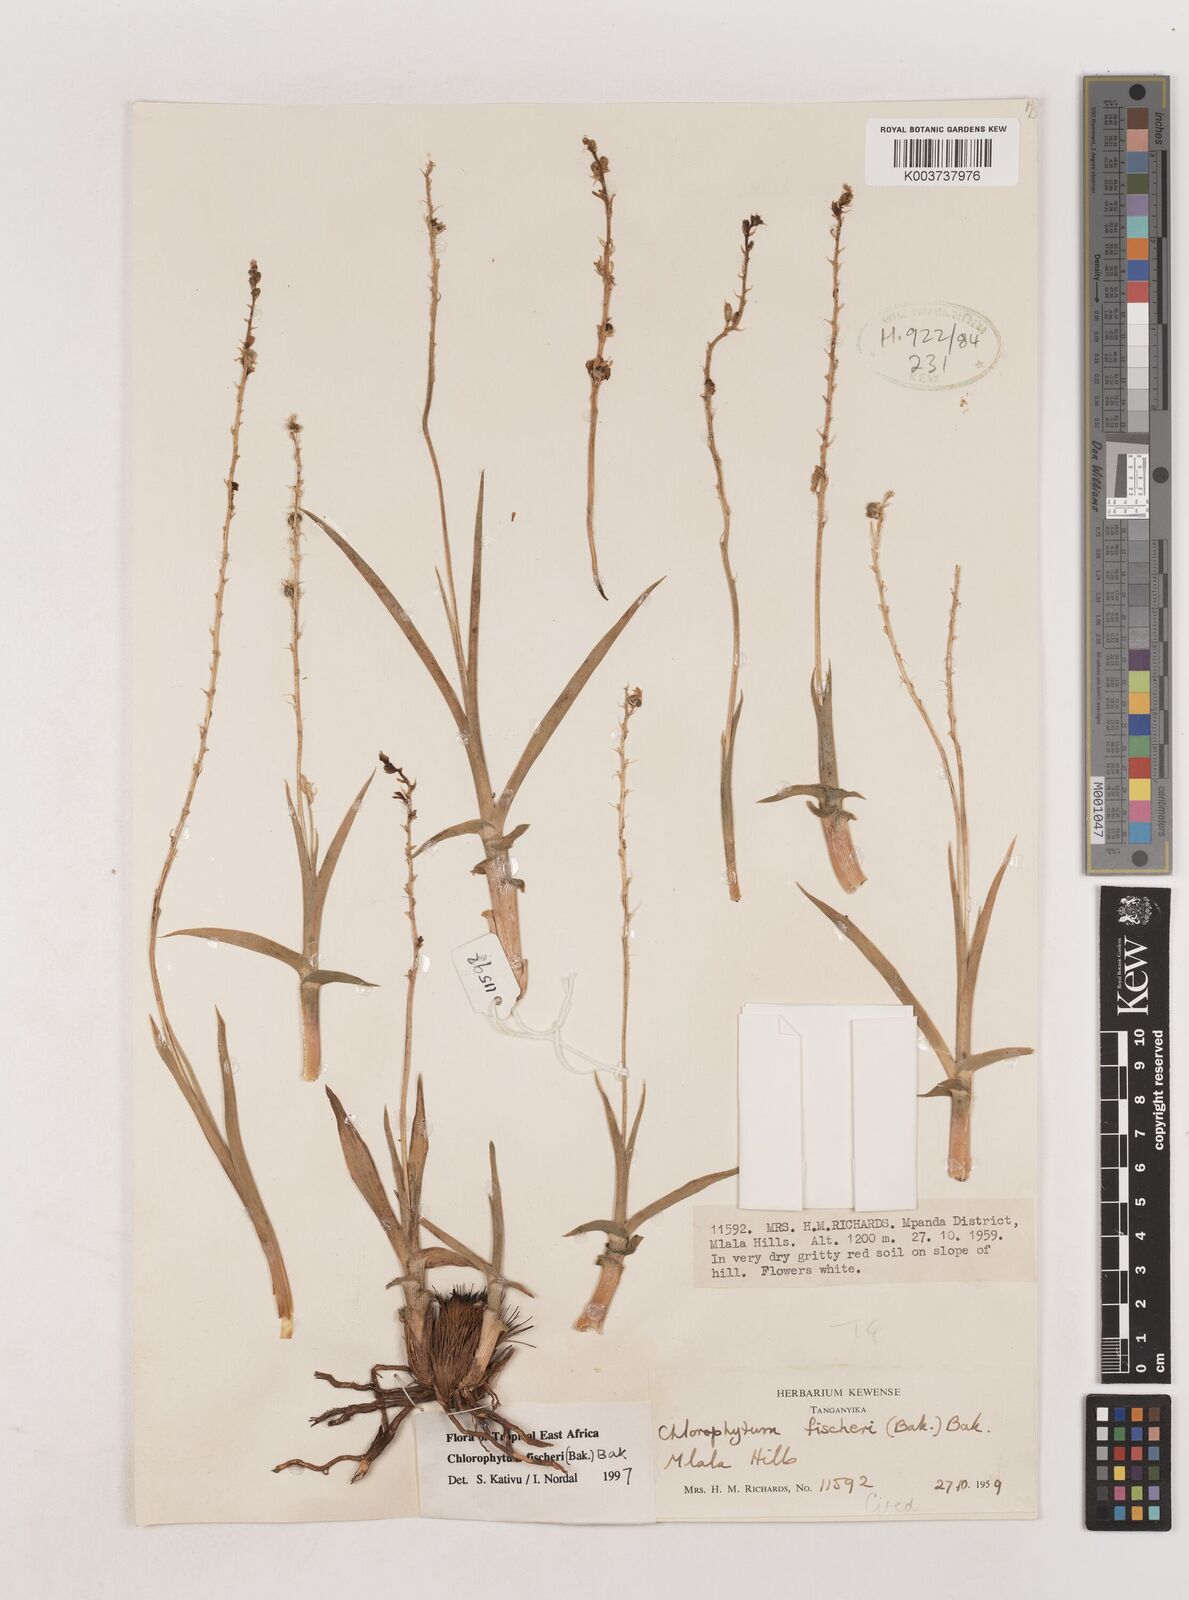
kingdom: Plantae
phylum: Tracheophyta
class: Liliopsida
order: Asparagales
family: Asparagaceae
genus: Chlorophytum
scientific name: Chlorophytum fischeri
